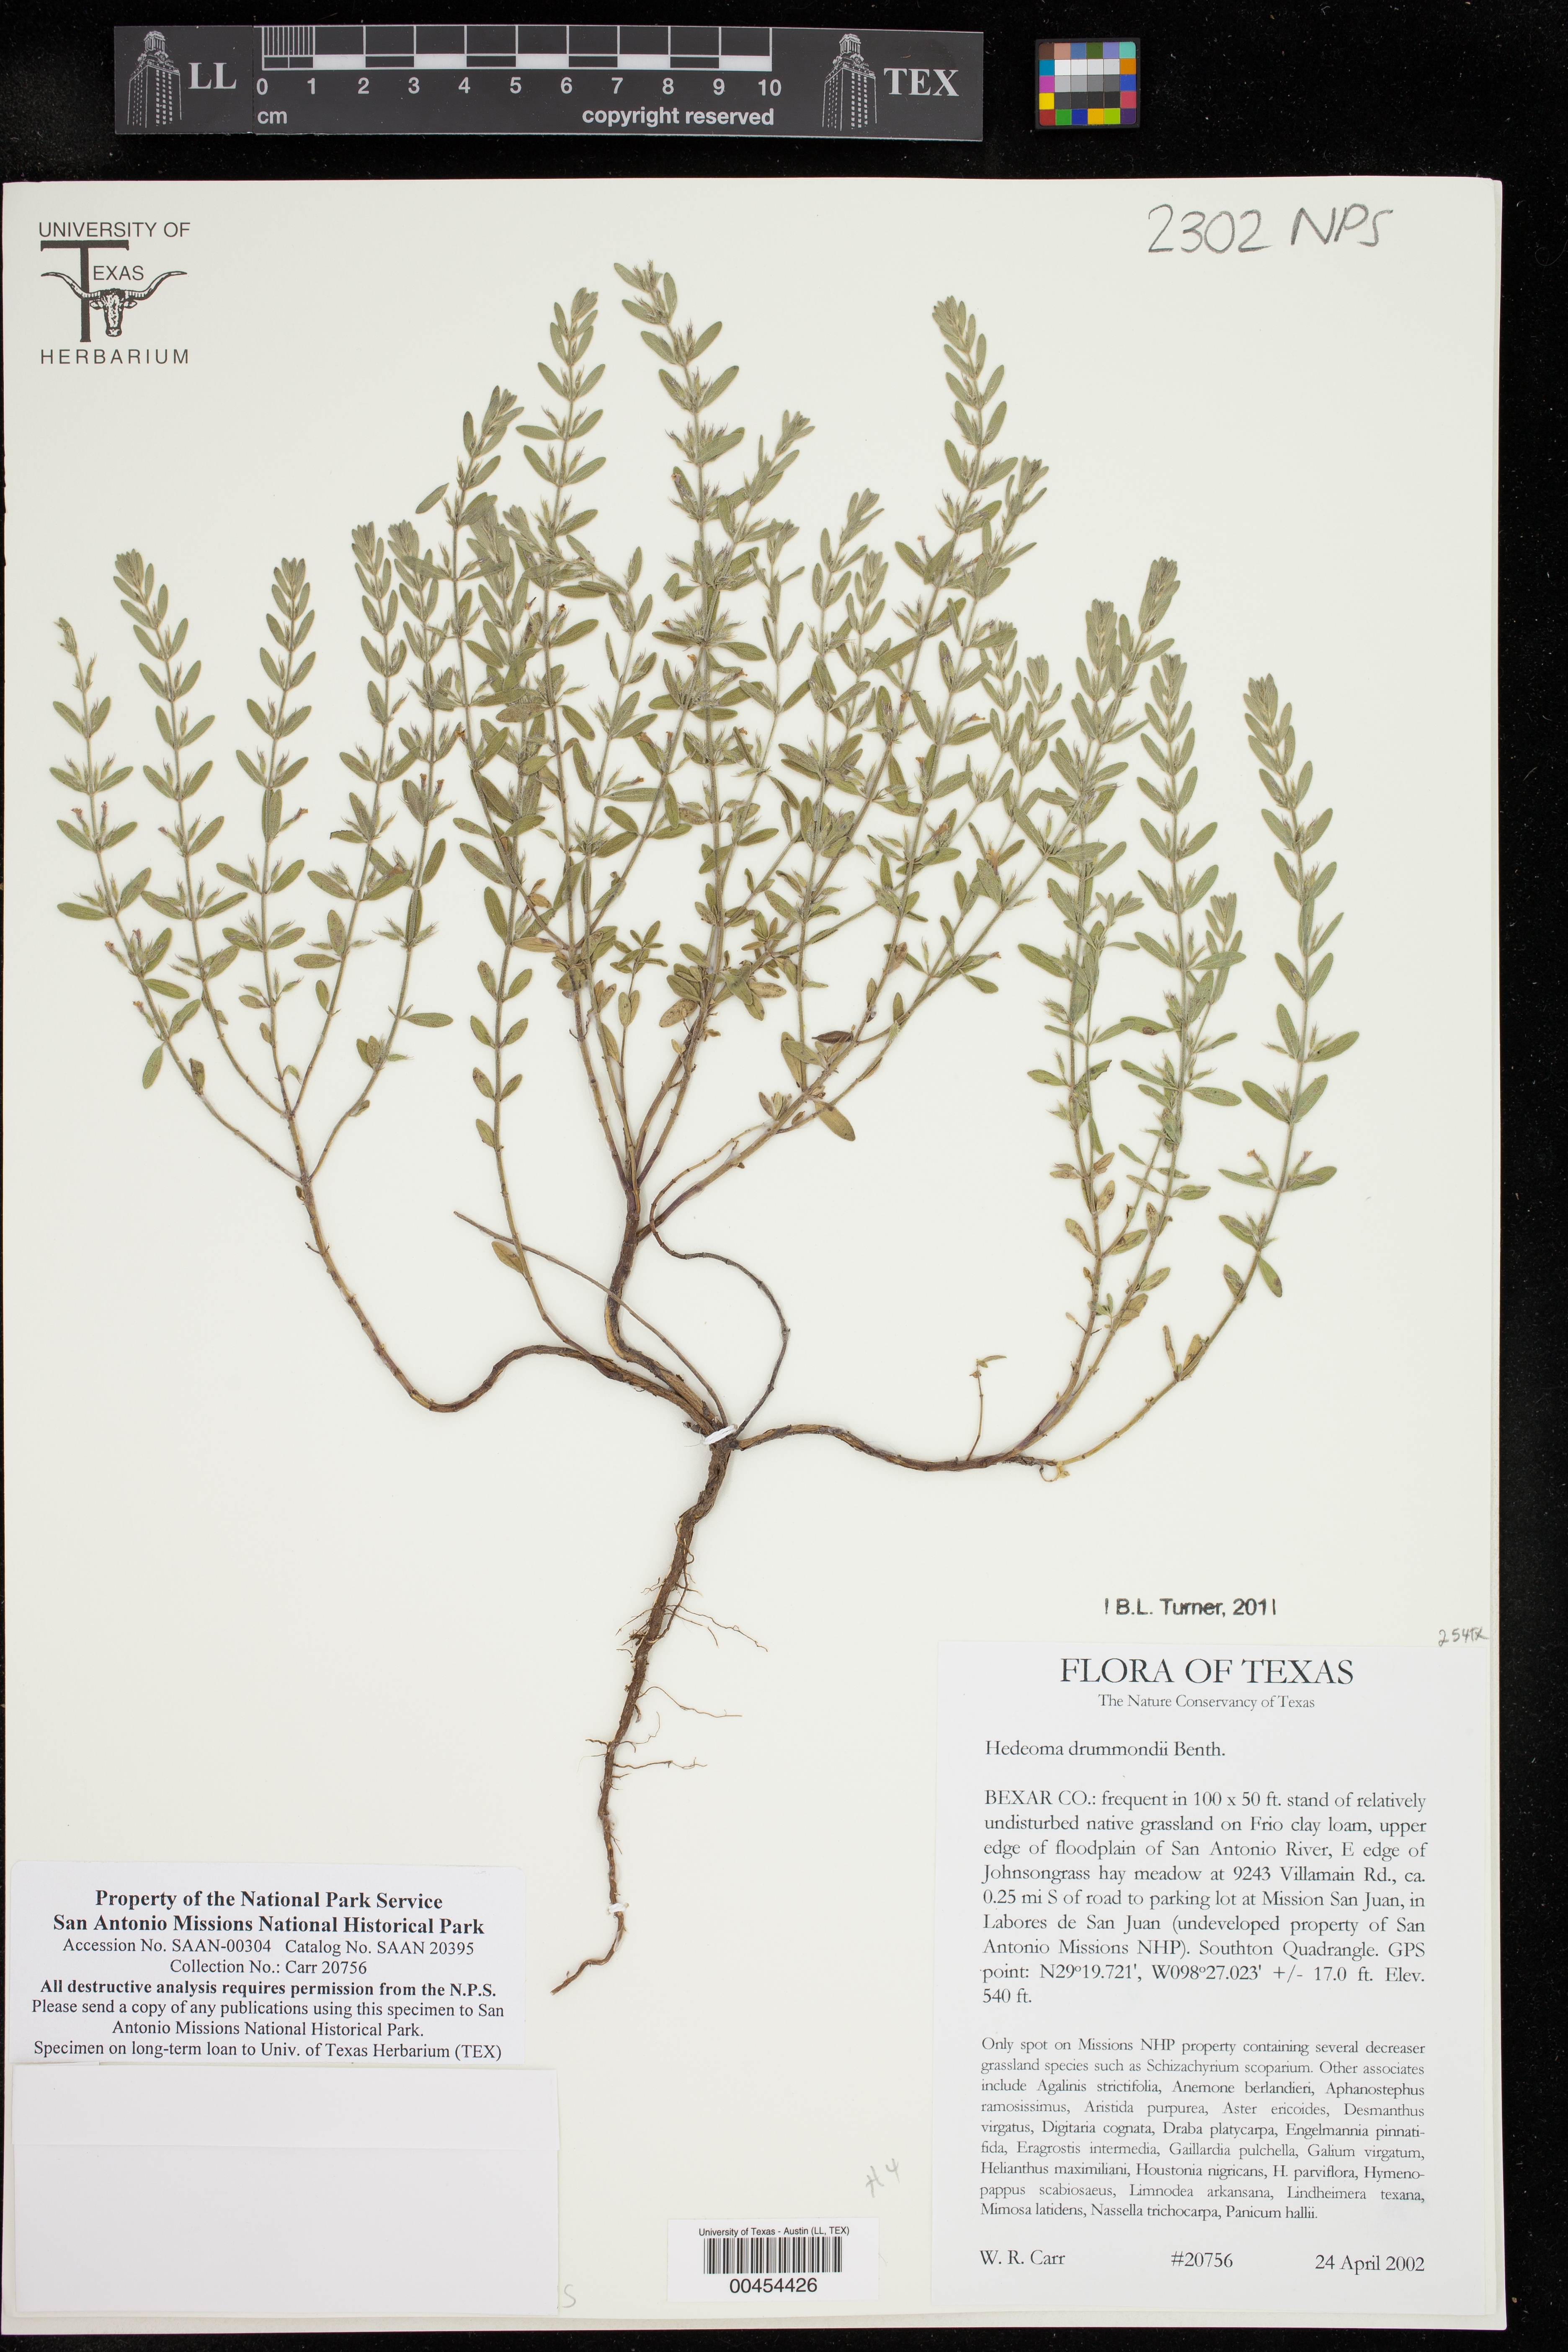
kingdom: Plantae
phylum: Tracheophyta
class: Magnoliopsida
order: Lamiales
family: Lamiaceae
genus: Hedeoma
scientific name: Hedeoma drummondii
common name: New mexico pennyroyal
